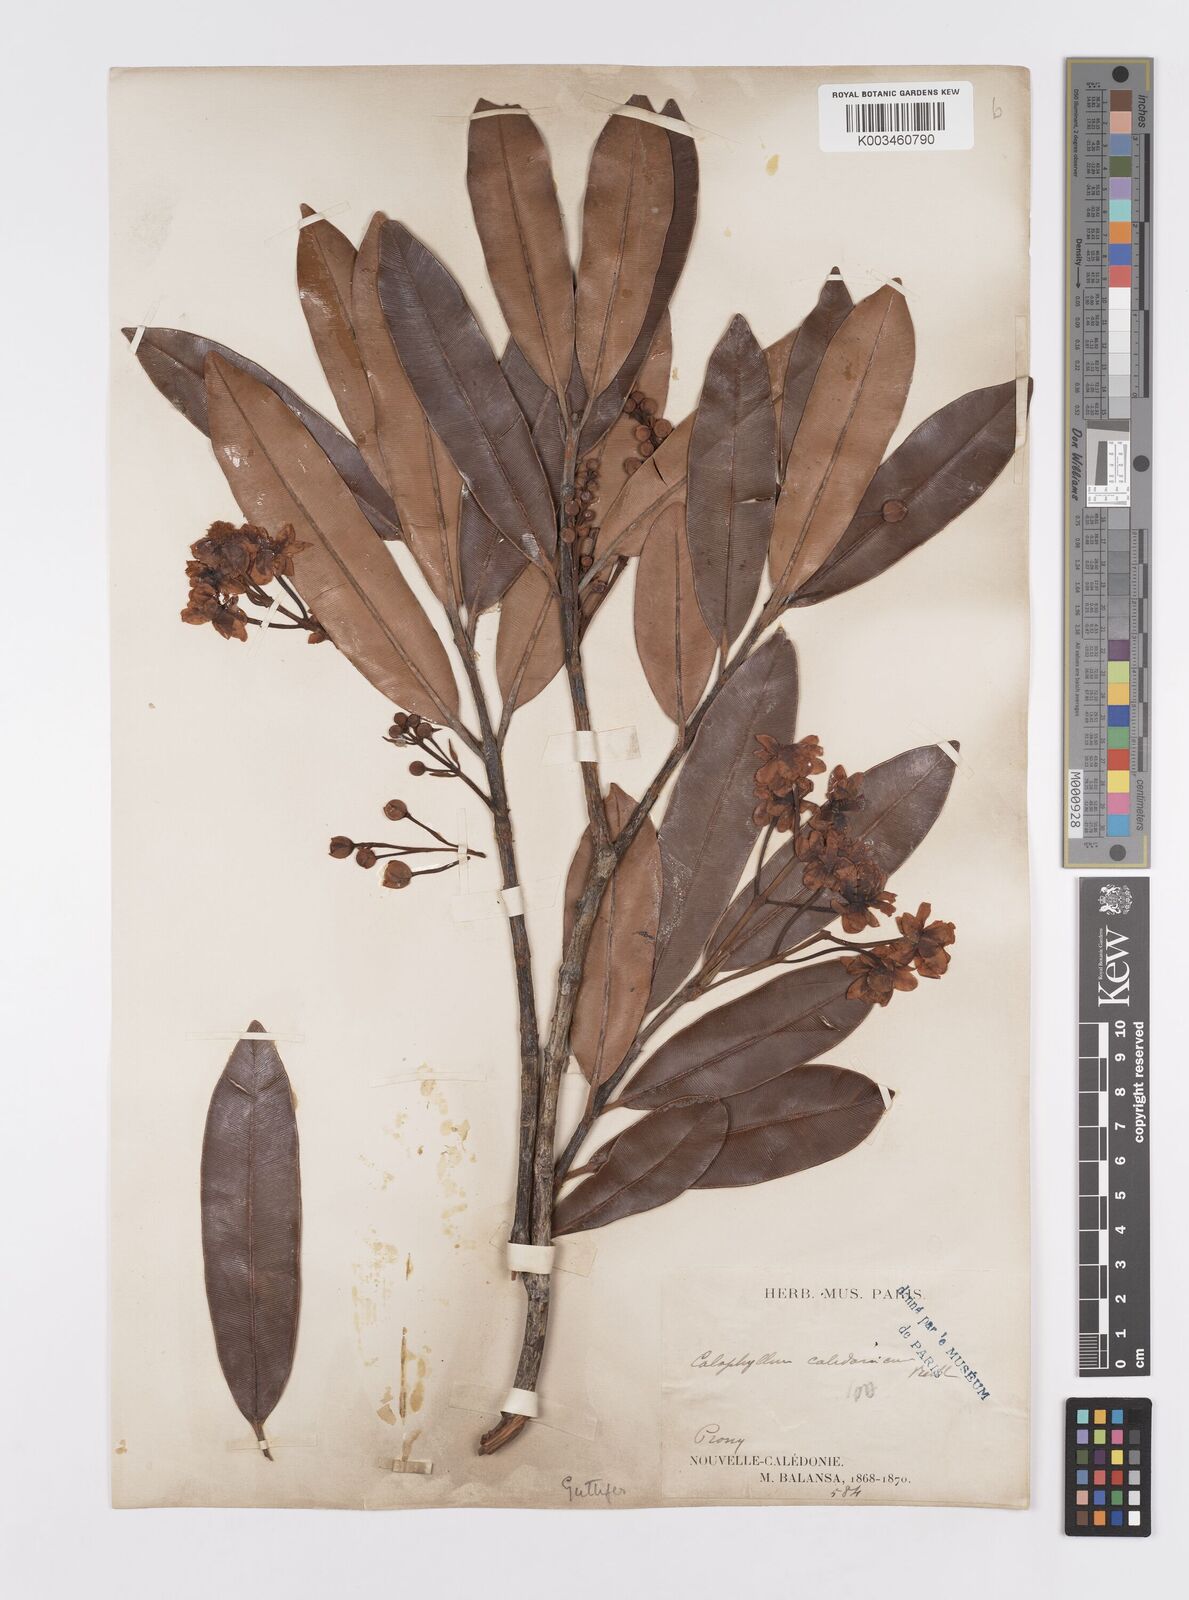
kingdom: Plantae
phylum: Tracheophyta
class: Magnoliopsida
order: Malpighiales
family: Calophyllaceae
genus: Calophyllum
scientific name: Calophyllum caledonicum
